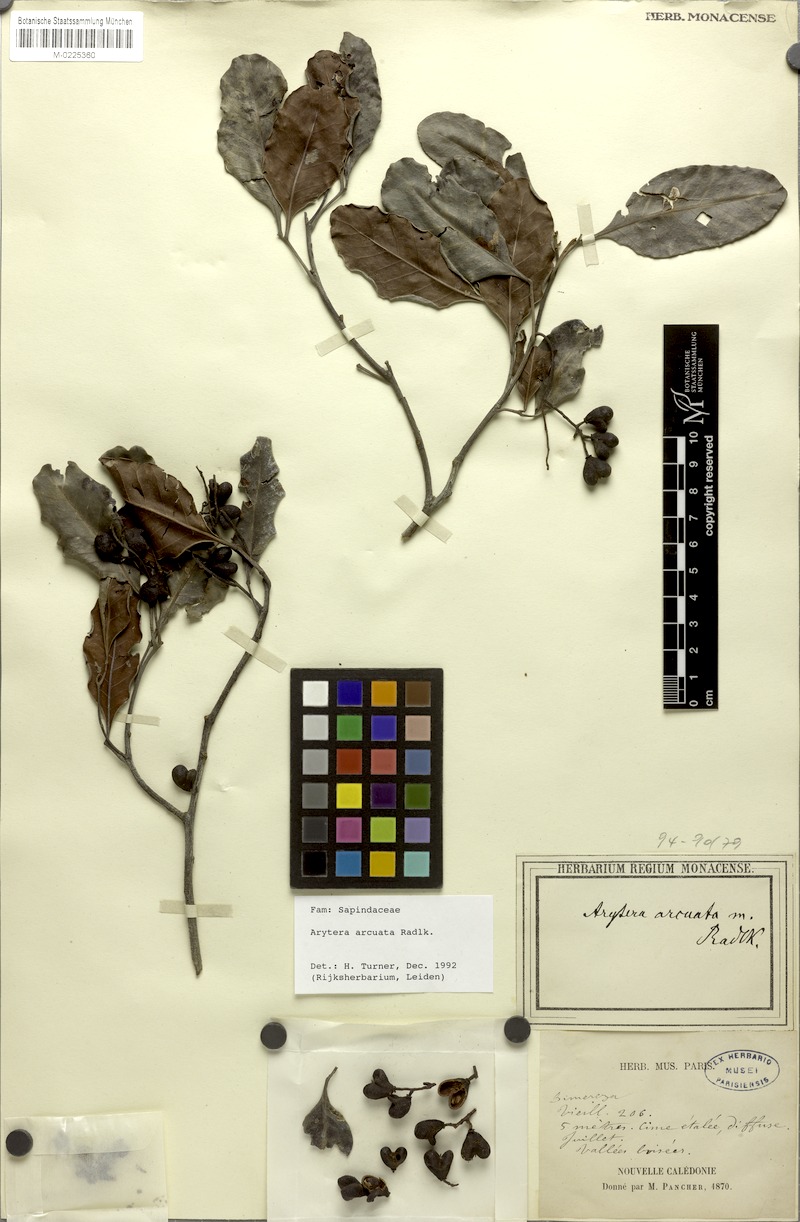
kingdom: Plantae
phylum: Tracheophyta
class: Magnoliopsida
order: Sapindales
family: Sapindaceae
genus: Lepidocupania
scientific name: Lepidocupania arcuata
